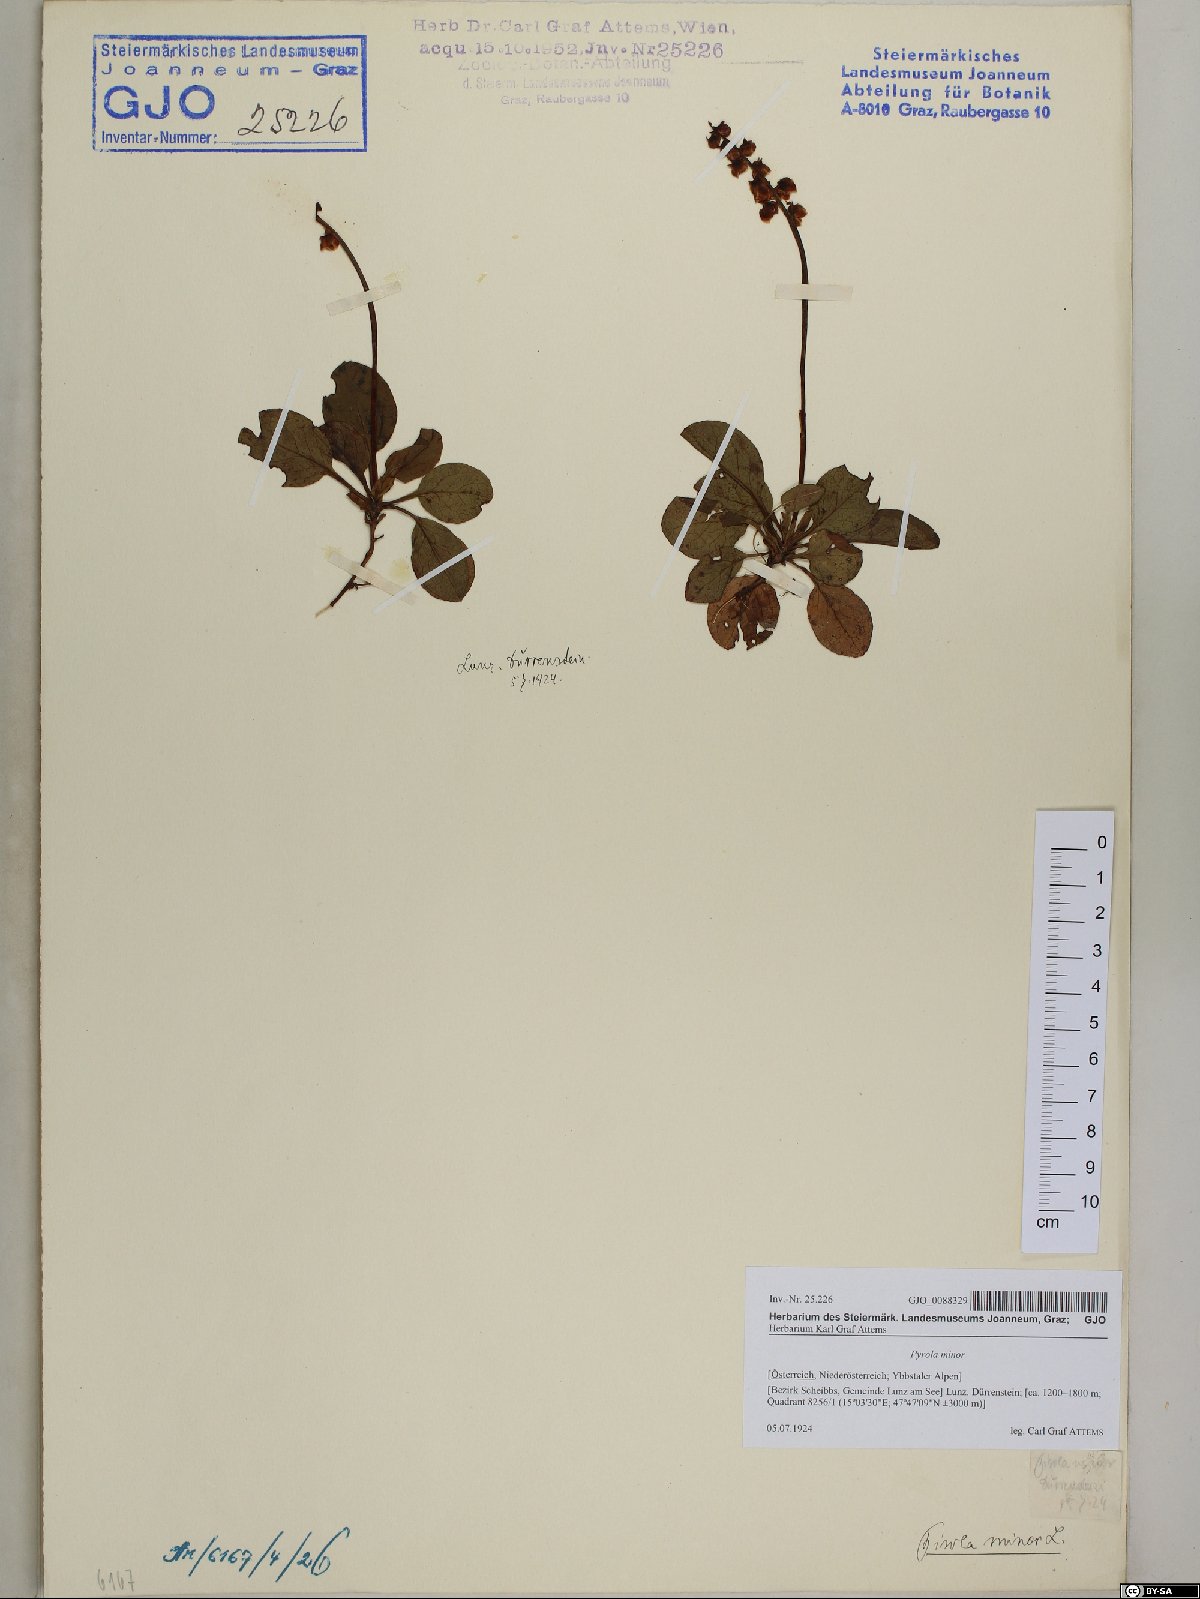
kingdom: Plantae
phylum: Tracheophyta
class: Magnoliopsida
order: Ericales
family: Ericaceae
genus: Pyrola
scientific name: Pyrola minor
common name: Common wintergreen
